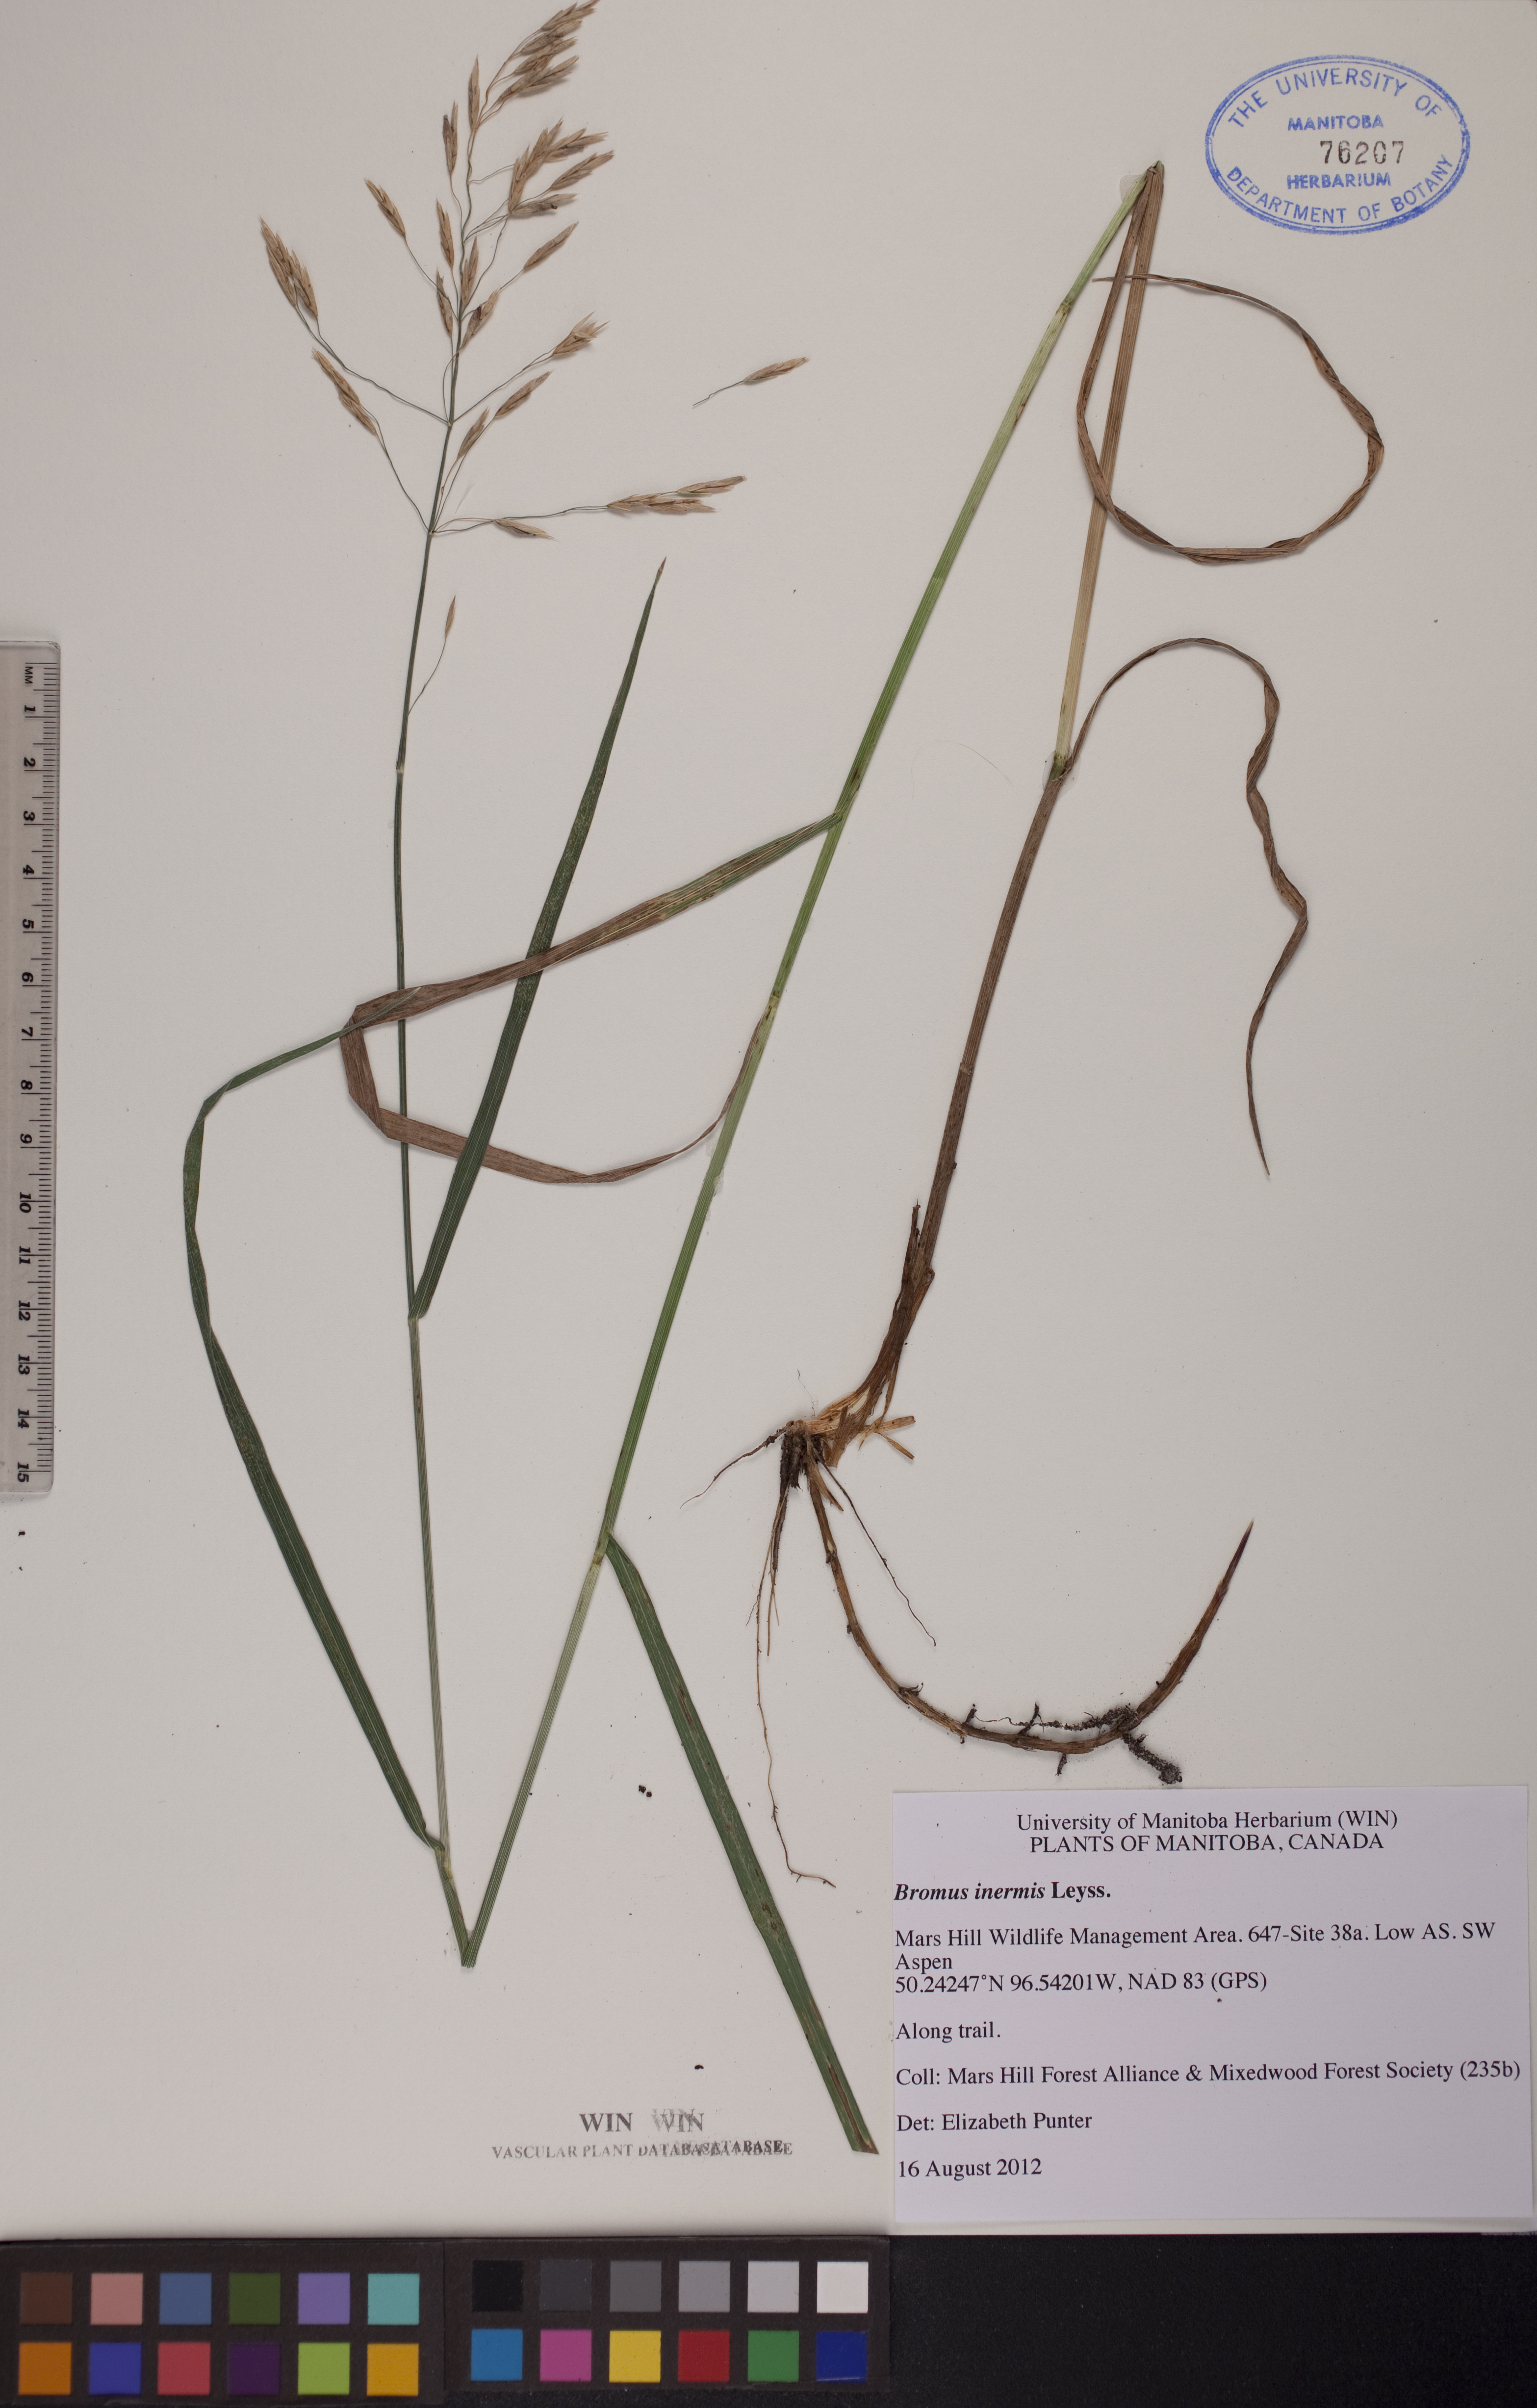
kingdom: Plantae
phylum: Tracheophyta
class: Liliopsida
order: Poales
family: Poaceae
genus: Bromus
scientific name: Bromus inermis
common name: Smooth brome
